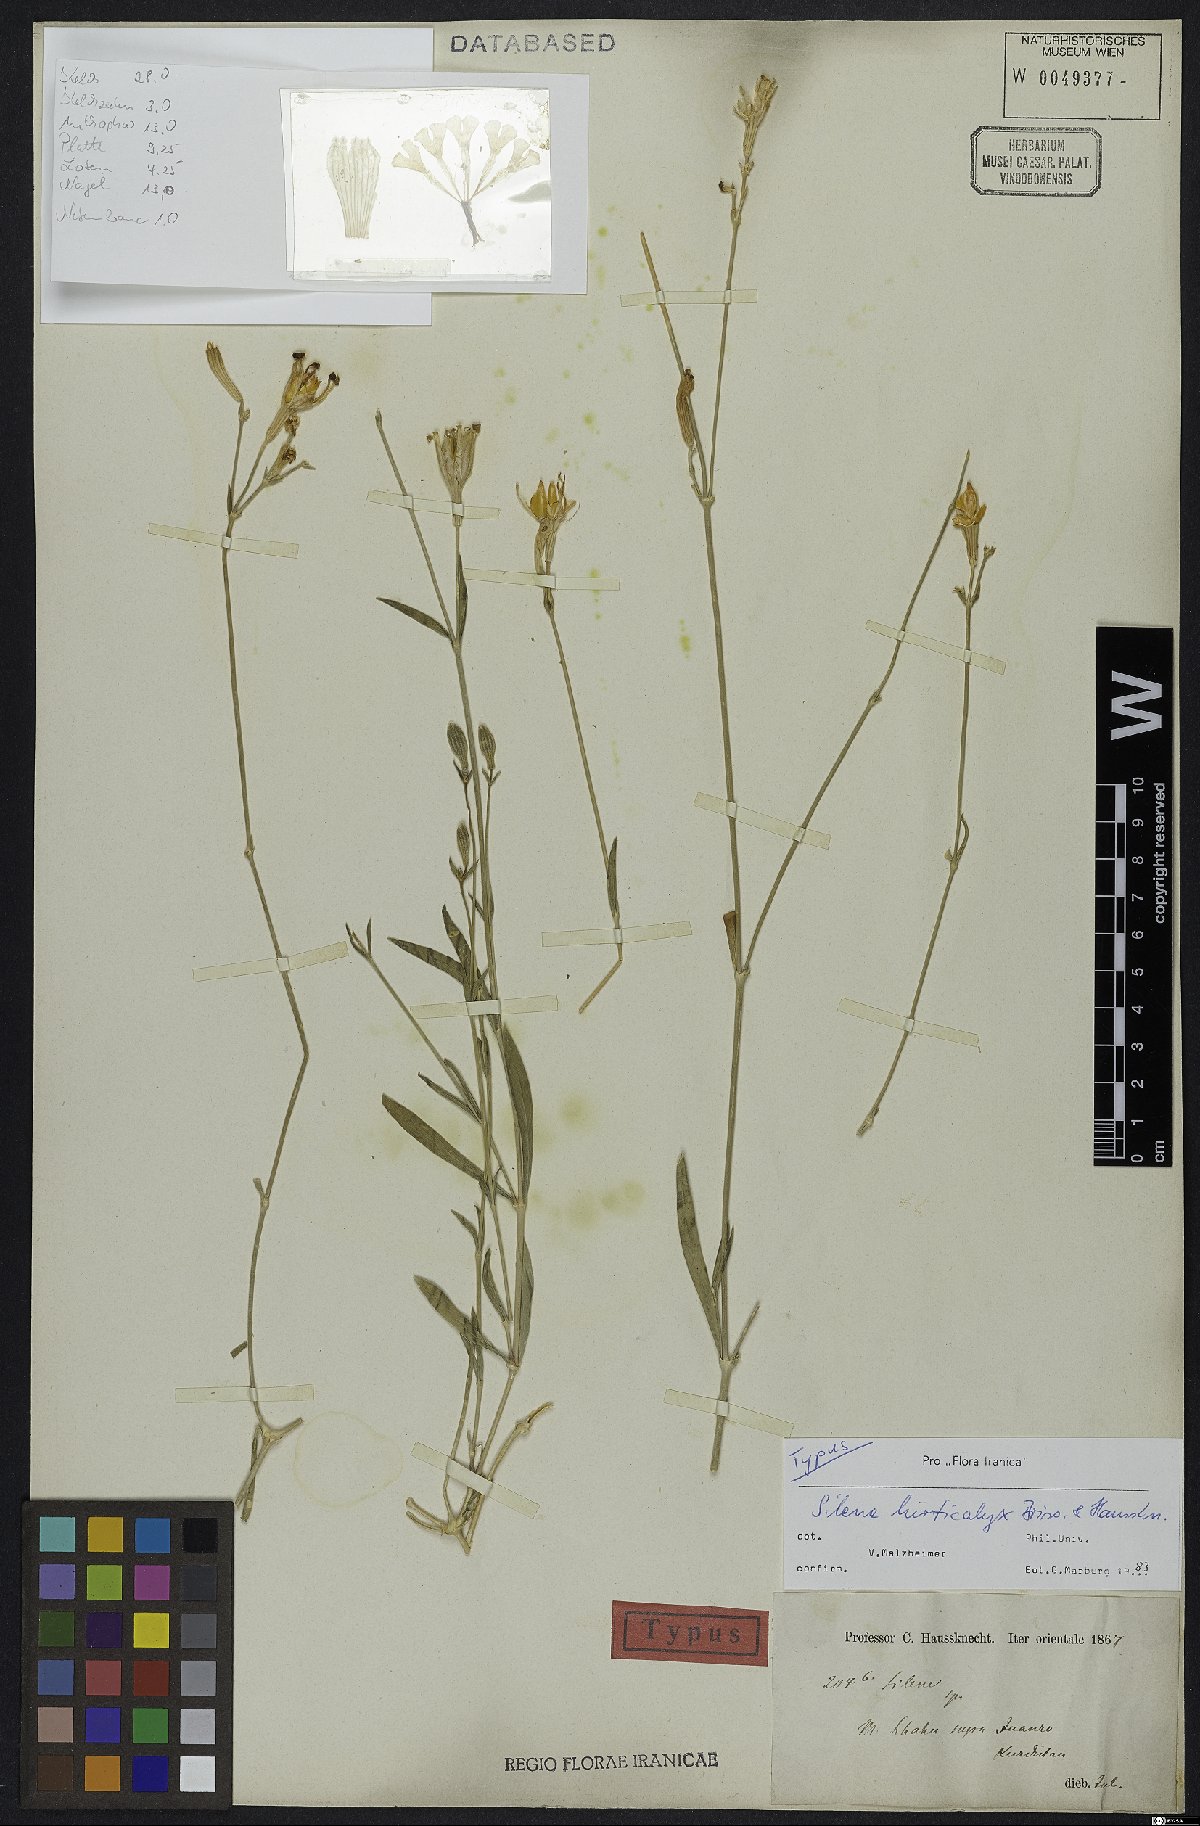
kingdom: Plantae
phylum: Tracheophyta
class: Magnoliopsida
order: Caryophyllales
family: Caryophyllaceae
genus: Silene
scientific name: Silene hirticalyx
